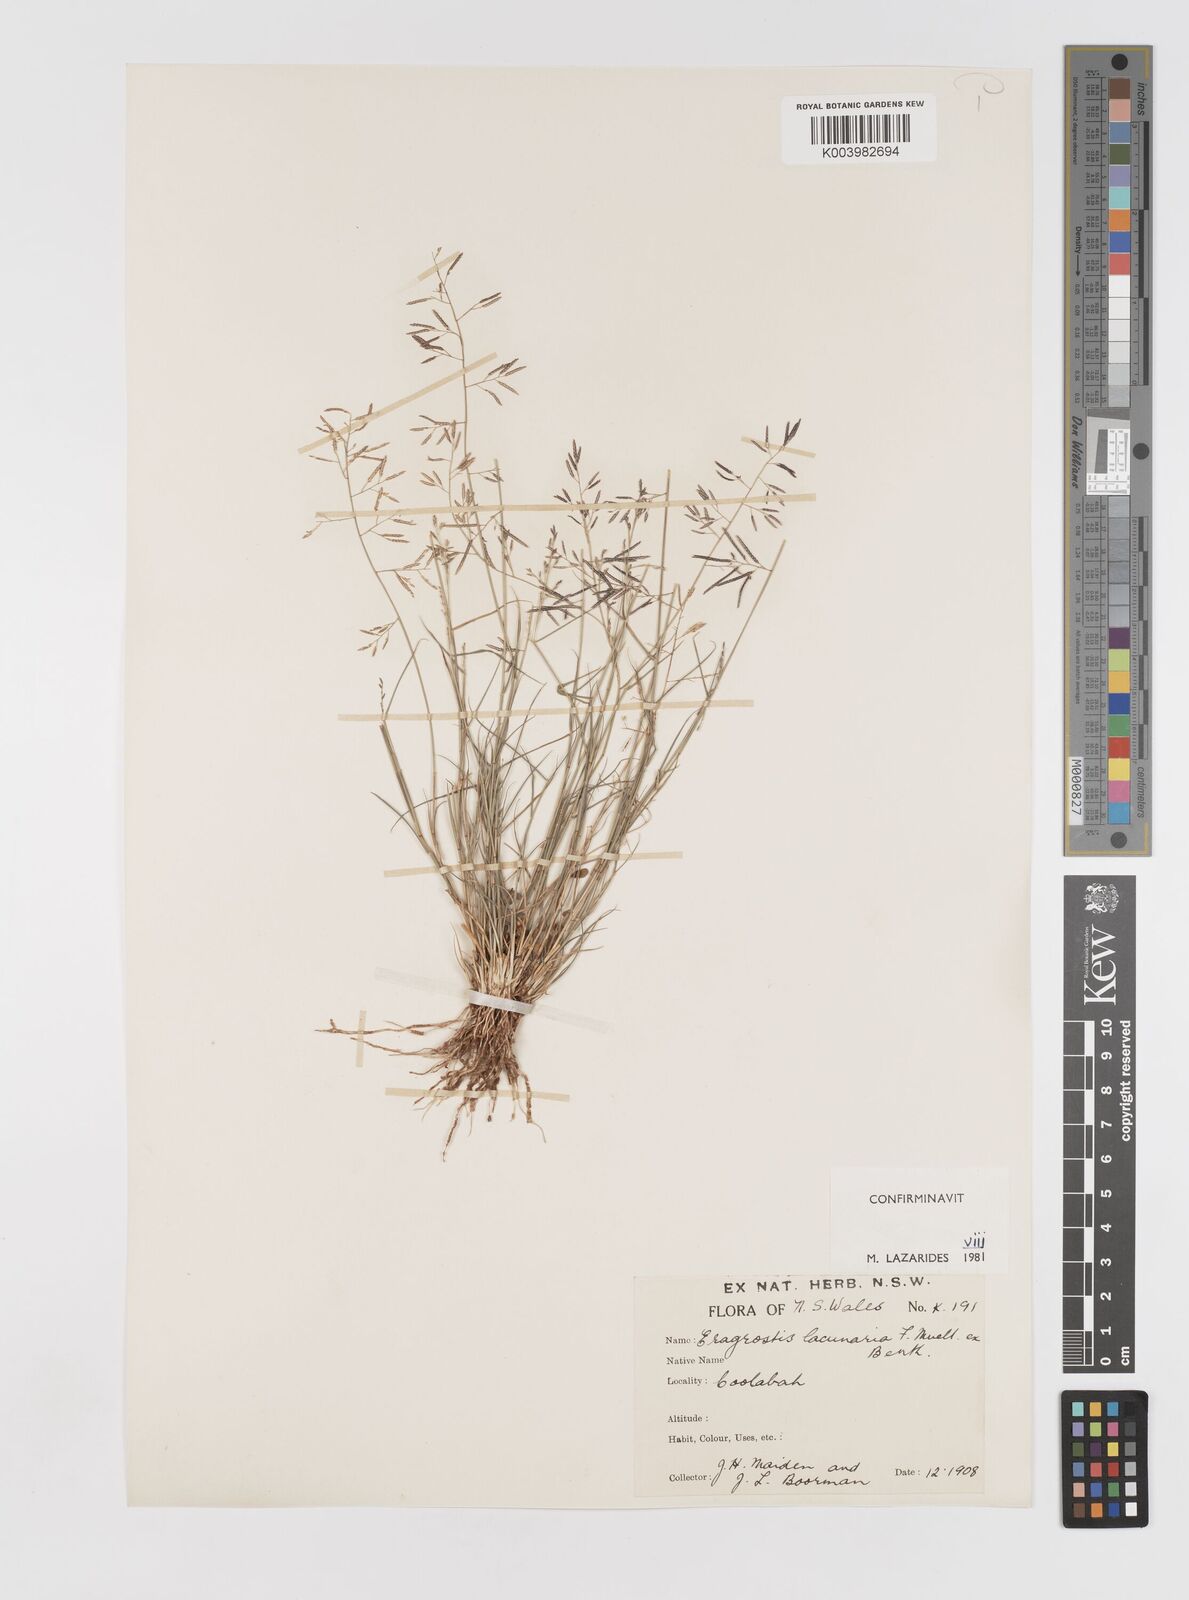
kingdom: Plantae
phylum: Tracheophyta
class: Liliopsida
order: Poales
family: Poaceae
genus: Eragrostis
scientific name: Eragrostis lacunaria
